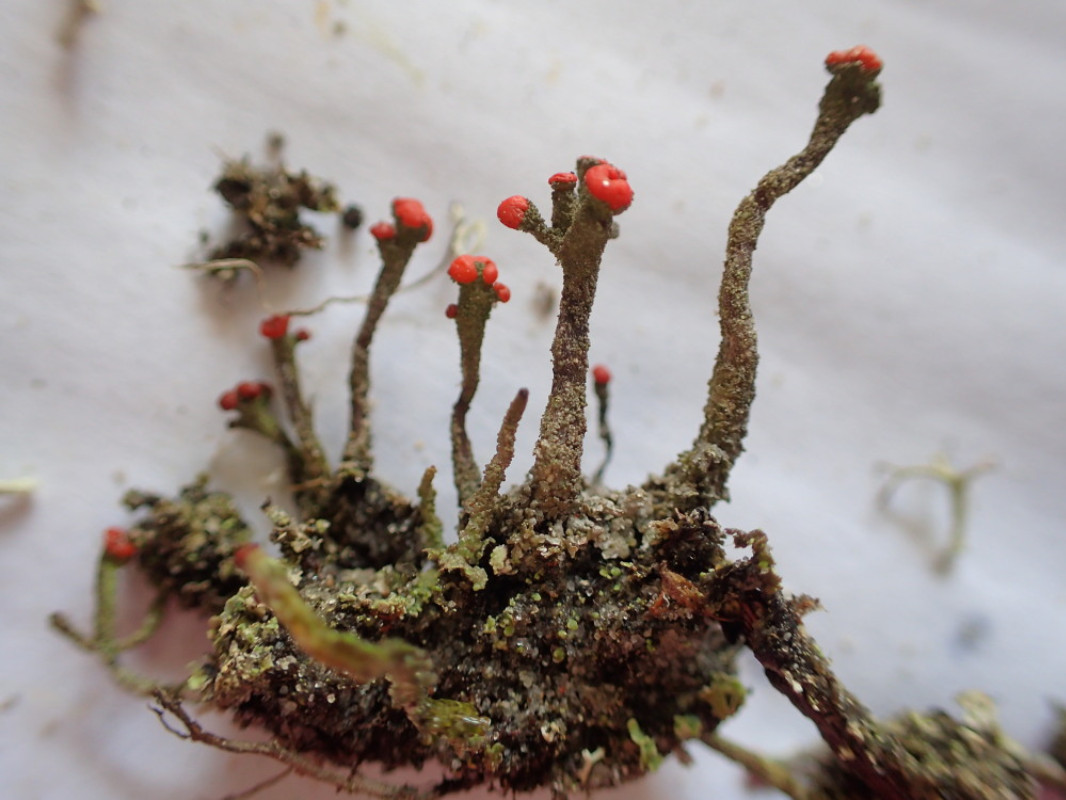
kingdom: Fungi
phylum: Ascomycota
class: Lecanoromycetes
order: Lecanorales
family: Cladoniaceae
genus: Cladonia
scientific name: Cladonia floerkeana
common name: lakrød bægerlav
